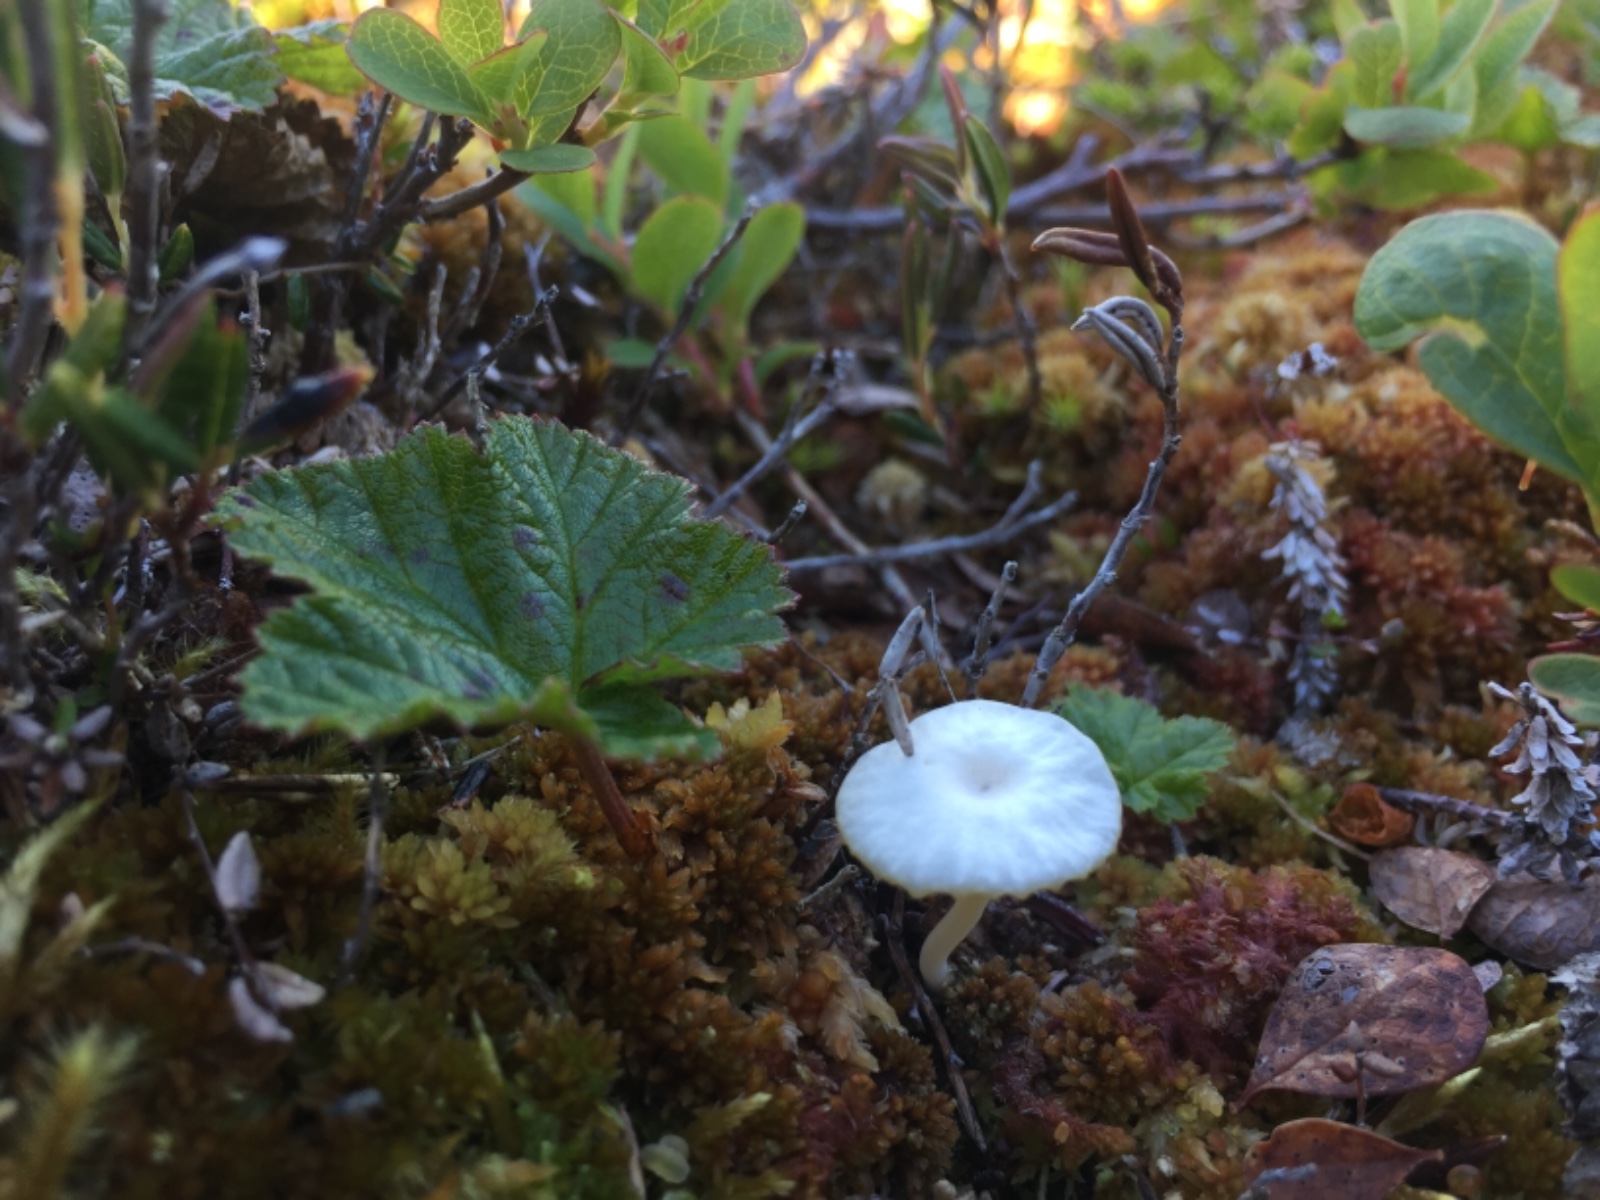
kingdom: Fungi
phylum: Basidiomycota
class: Agaricomycetes
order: Agaricales
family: Hygrophoraceae
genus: Lichenomphalia
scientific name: Lichenomphalia umbellifera
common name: tørve-lavhat
